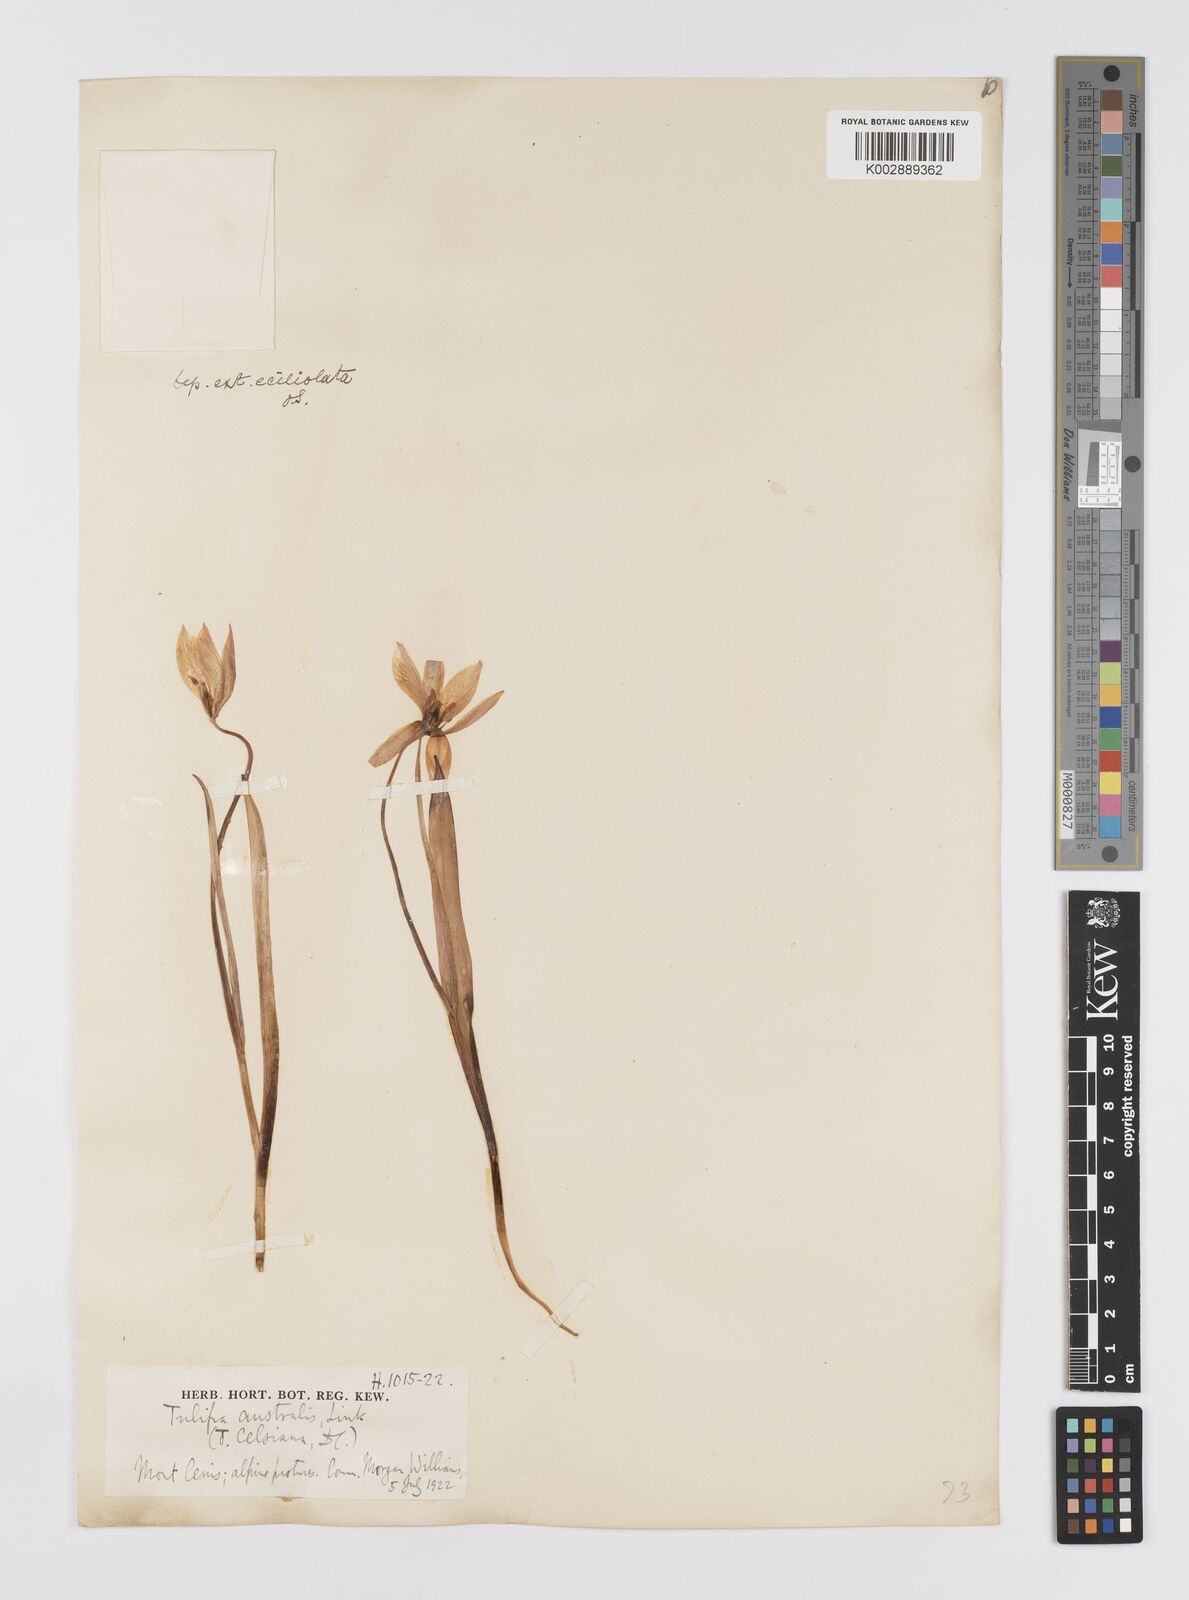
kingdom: Plantae
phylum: Tracheophyta
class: Liliopsida
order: Liliales
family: Liliaceae
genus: Tulipa
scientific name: Tulipa sylvestris
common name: Wild tulip
